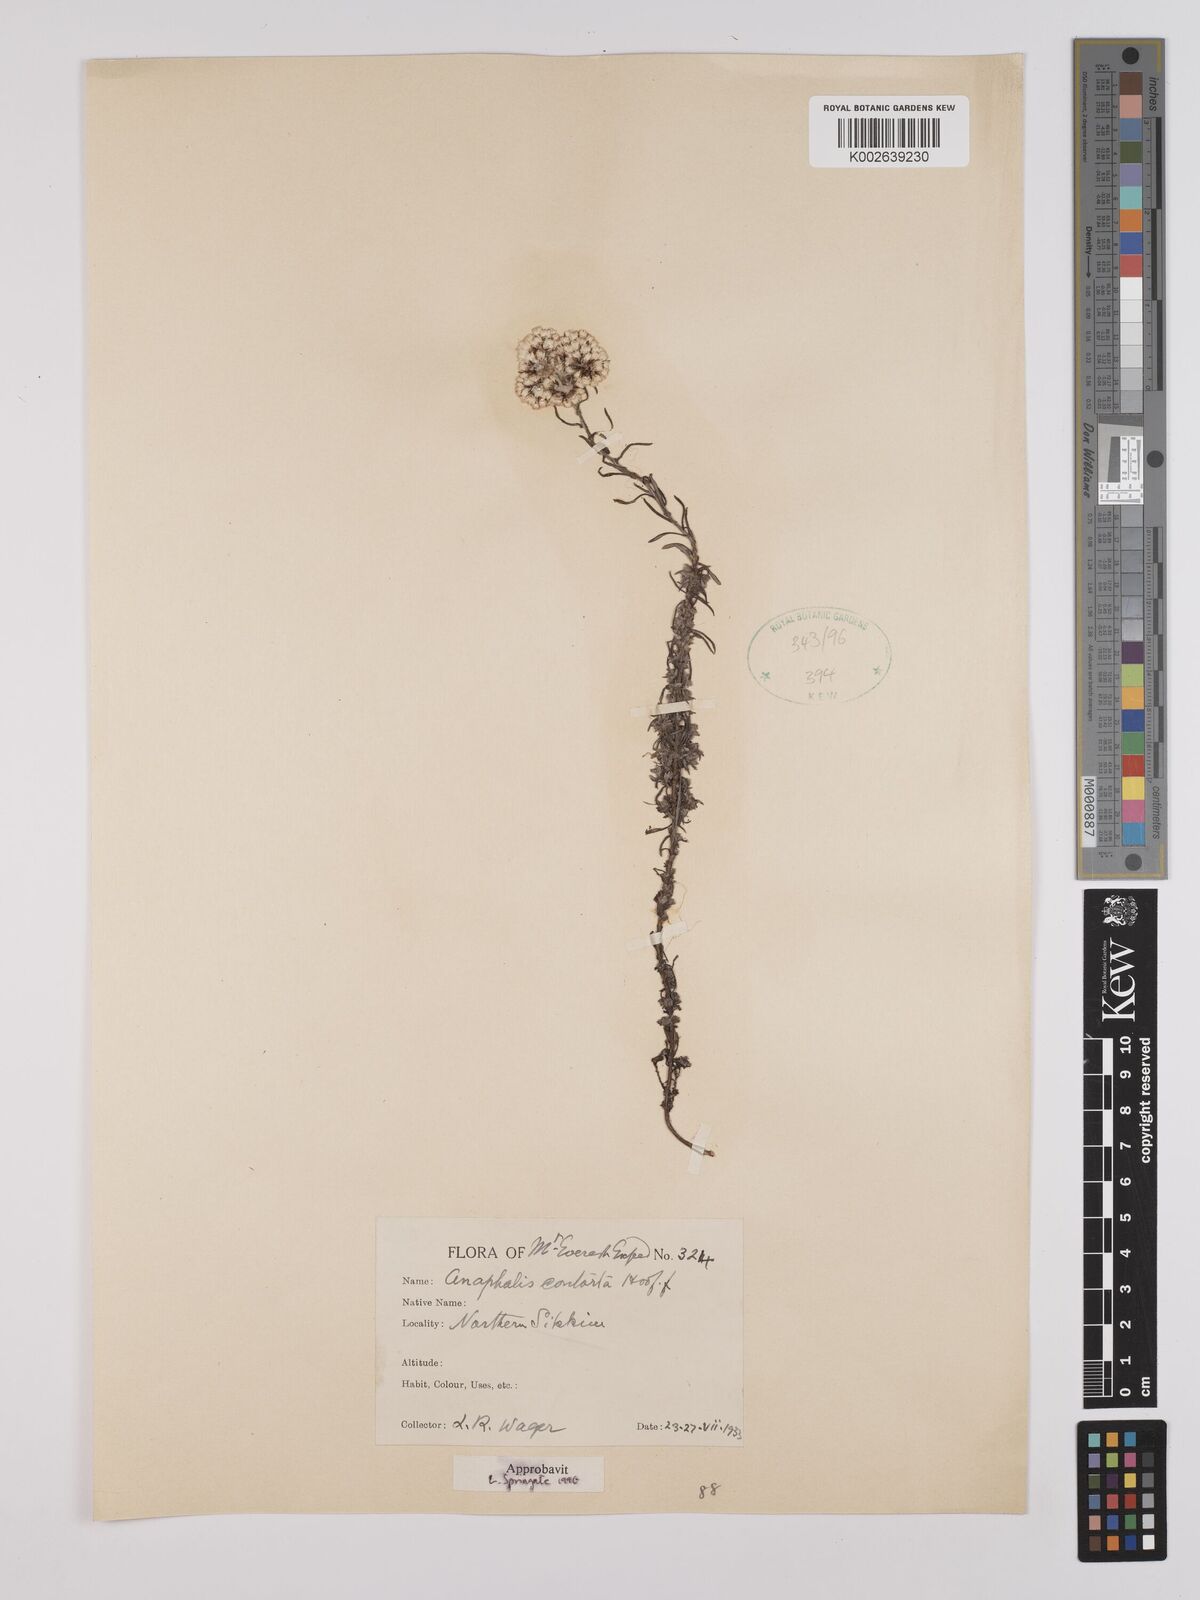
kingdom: Plantae
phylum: Tracheophyta
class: Magnoliopsida
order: Asterales
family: Asteraceae
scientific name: Asteraceae
